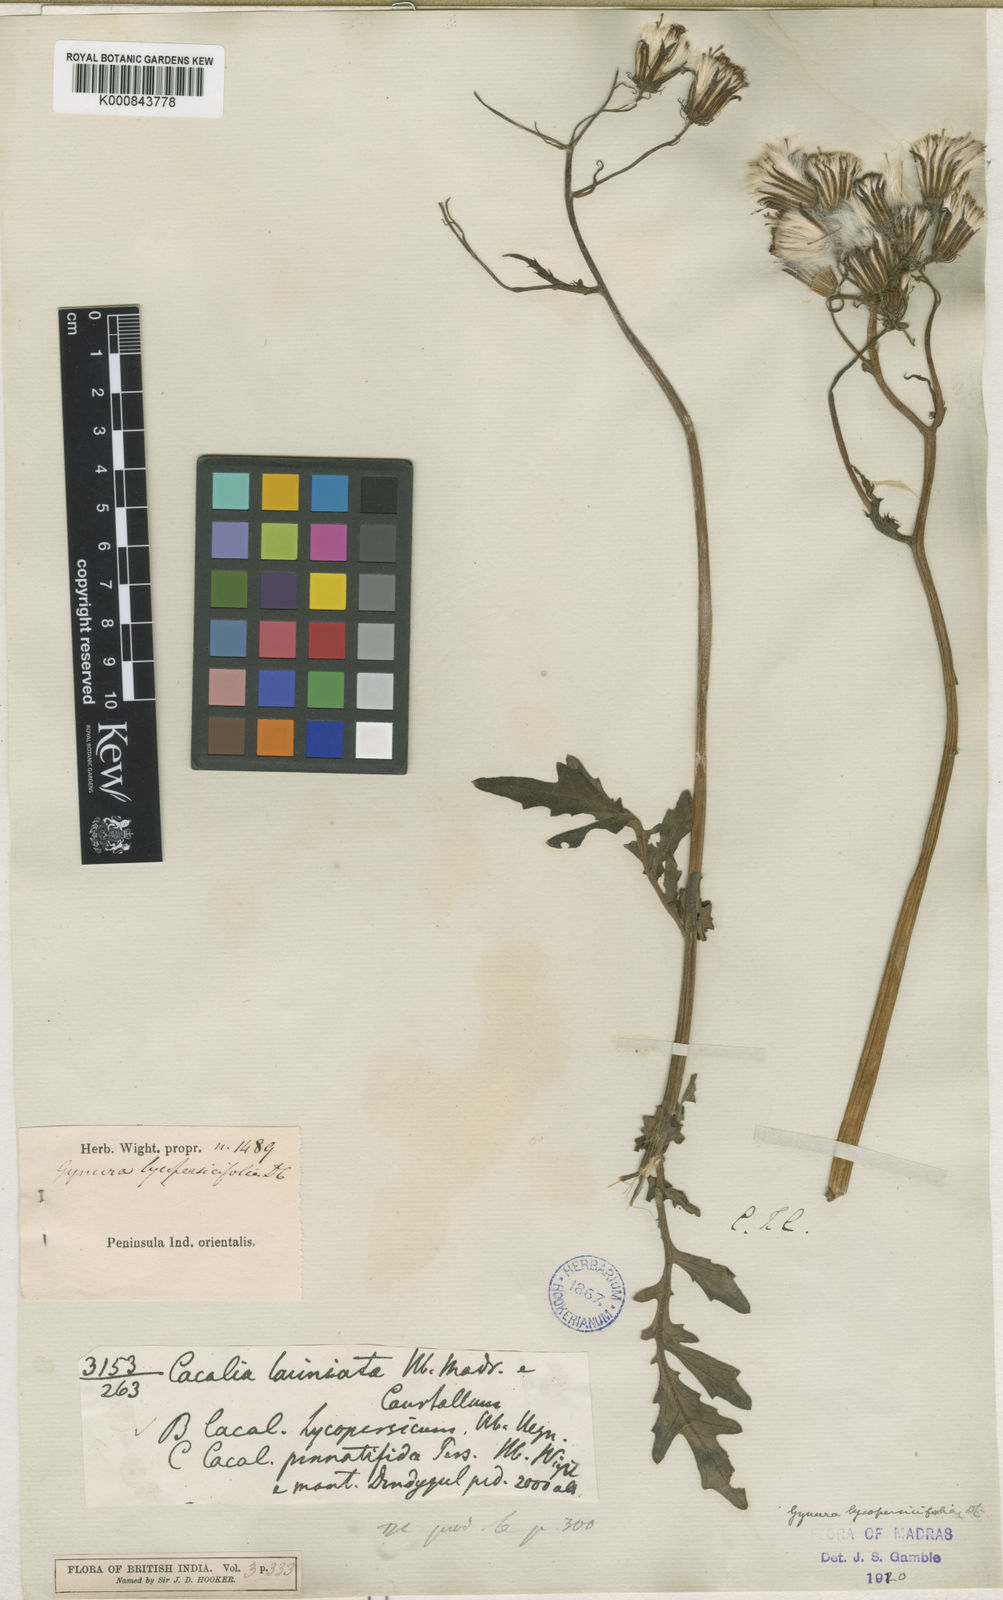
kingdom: Plantae
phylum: Tracheophyta
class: Magnoliopsida
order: Asterales
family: Asteraceae
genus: Gynura
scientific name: Gynura lycopersicifolia
